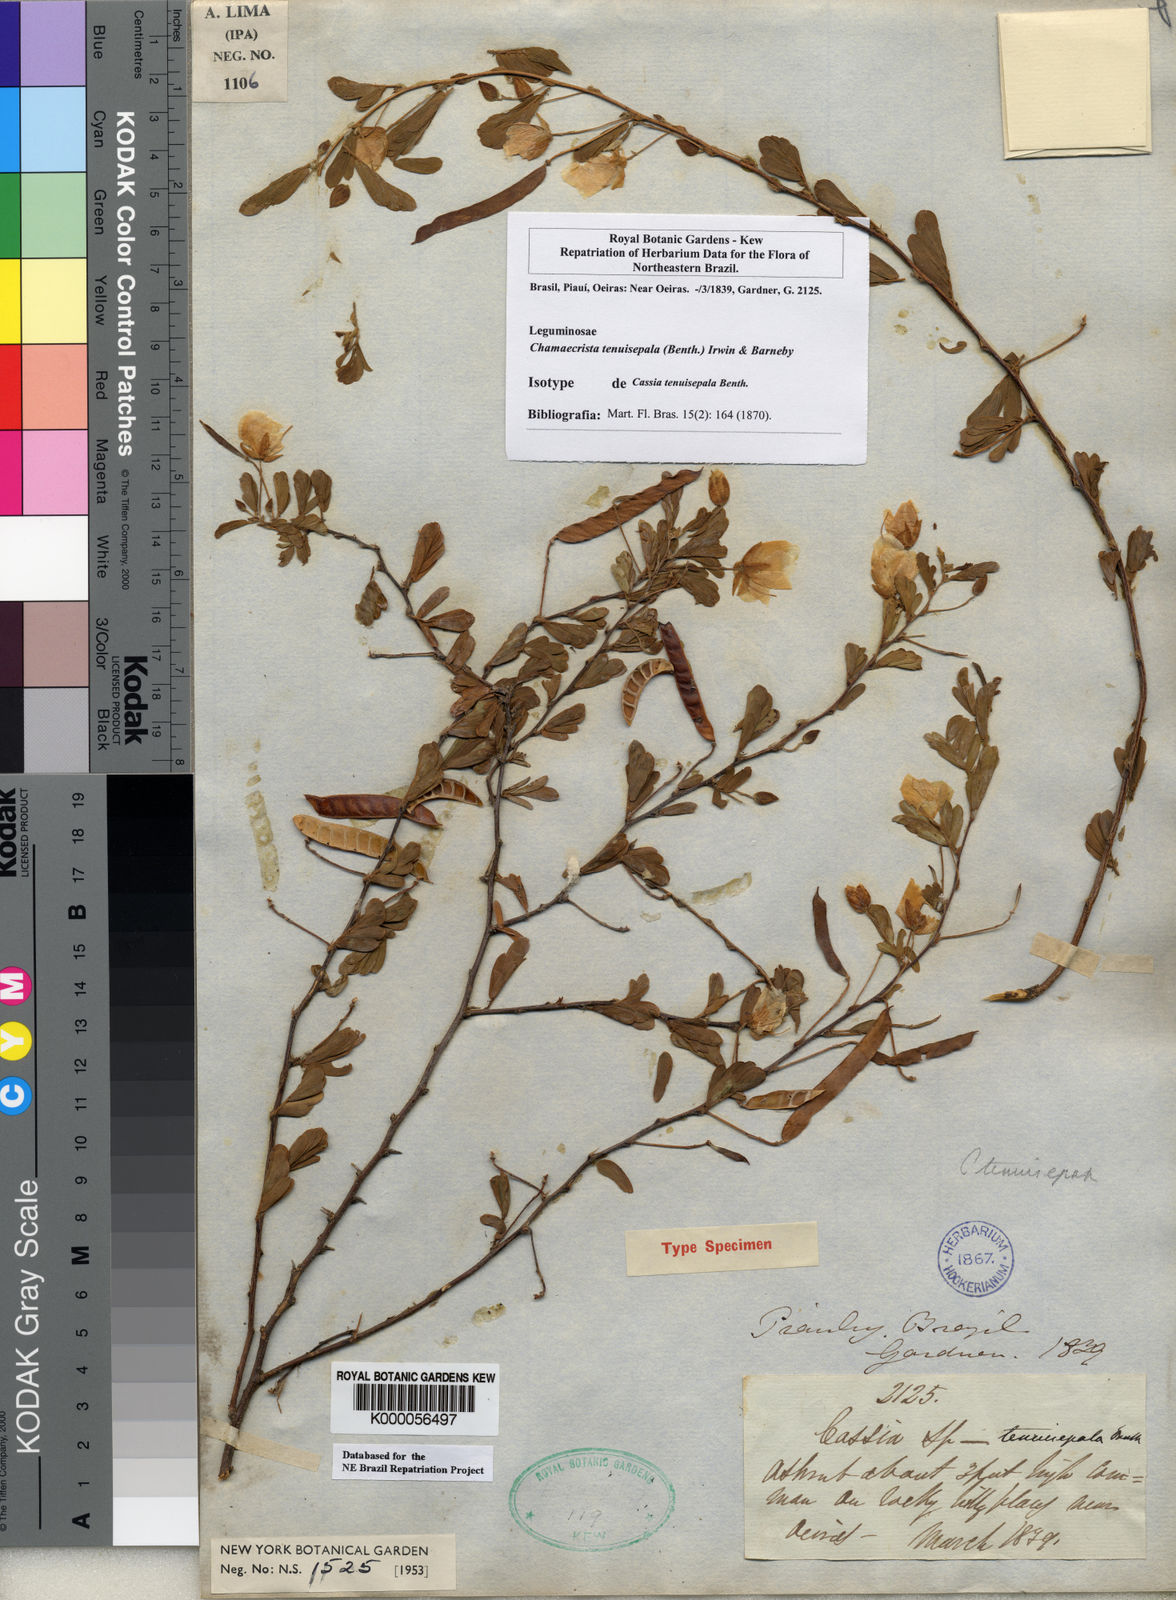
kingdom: Plantae
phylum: Tracheophyta
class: Magnoliopsida
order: Fabales
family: Fabaceae
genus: Chamaecrista
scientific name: Chamaecrista tenuisepala
